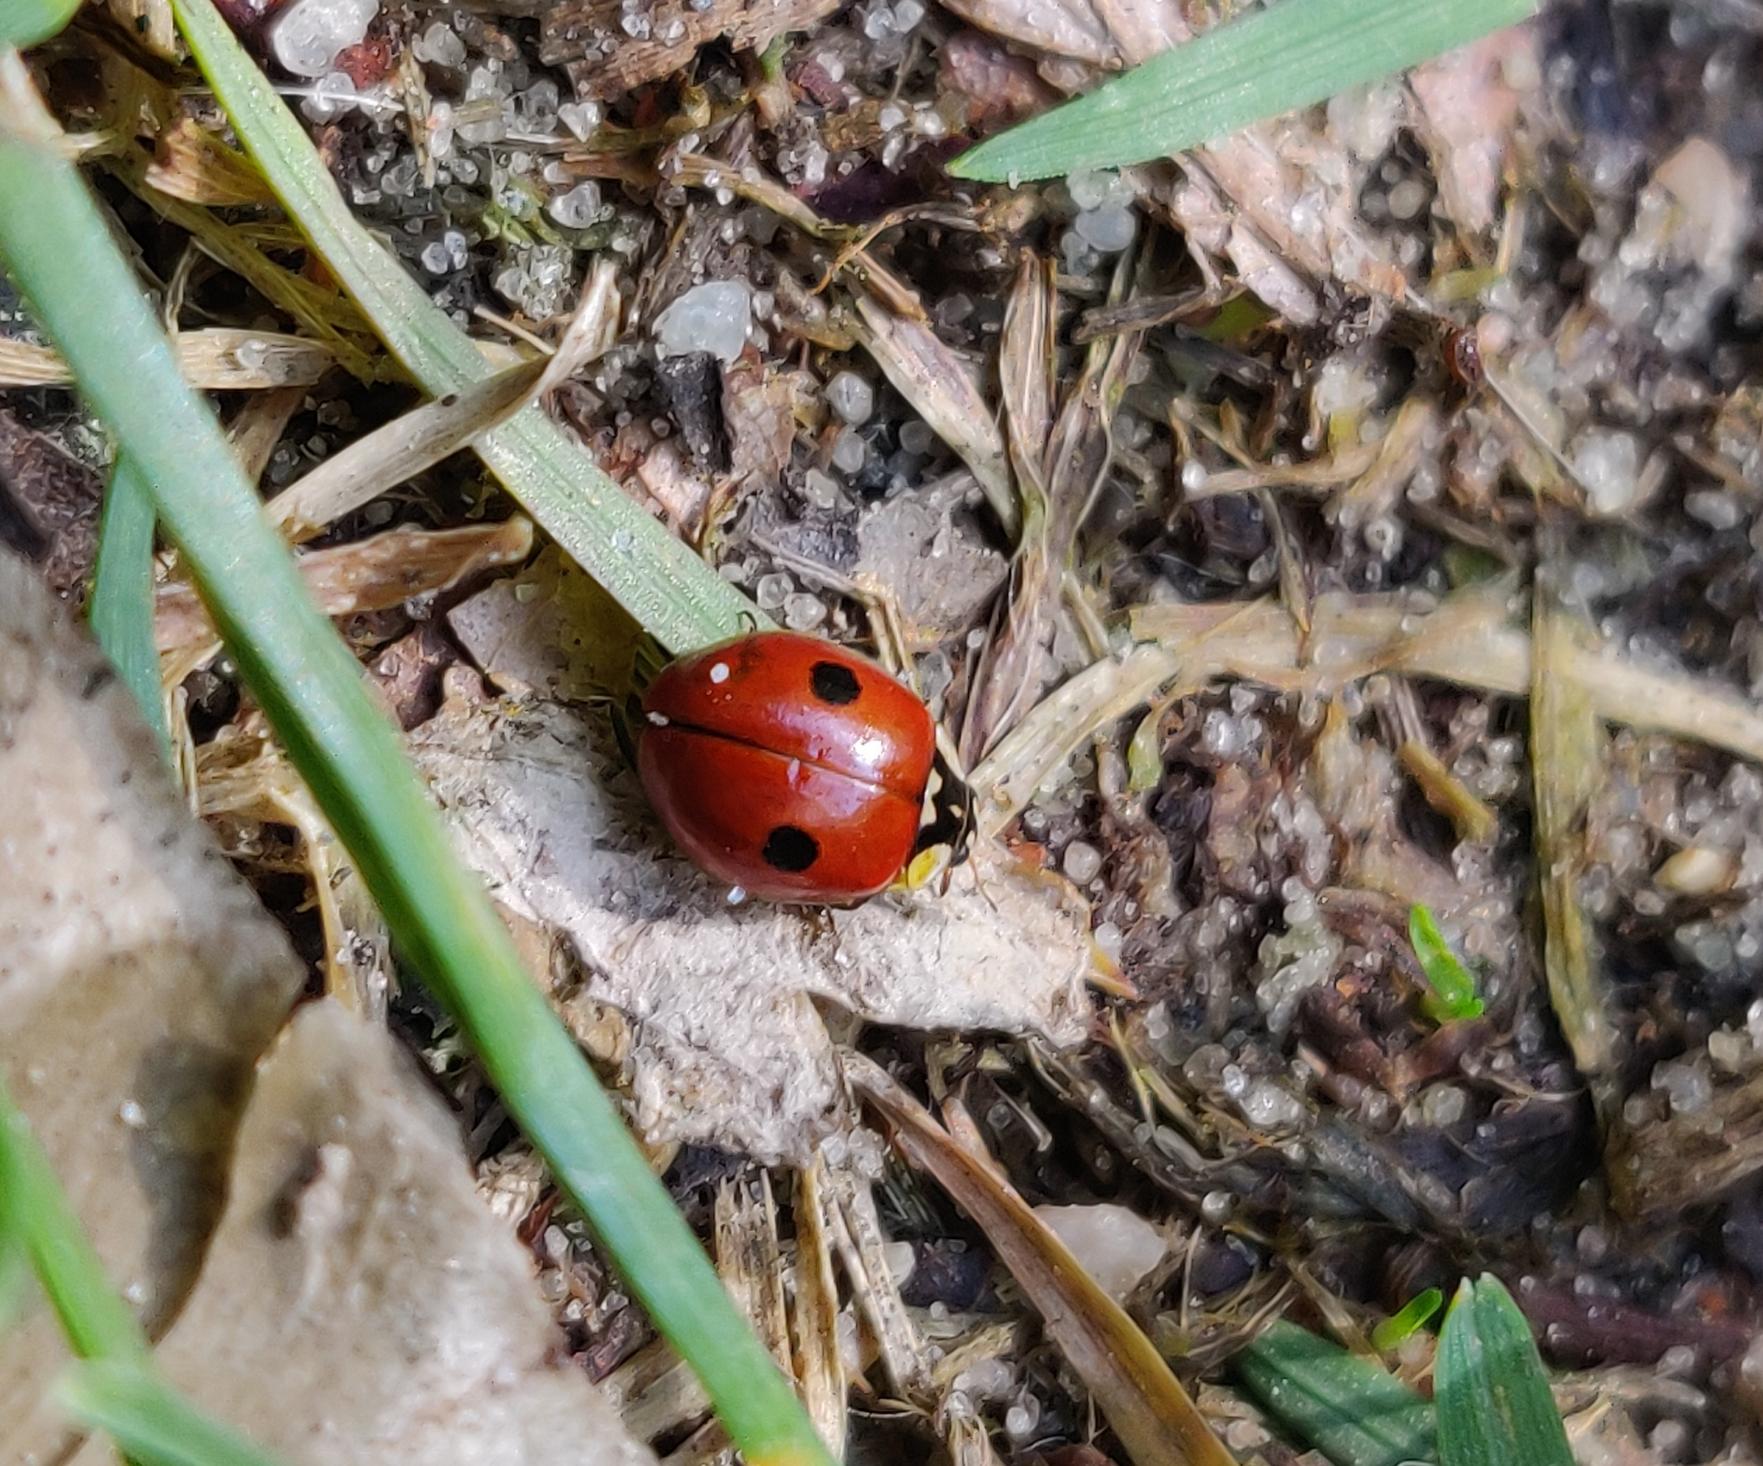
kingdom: Animalia
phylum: Arthropoda
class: Insecta
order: Coleoptera
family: Coccinellidae
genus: Adalia
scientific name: Adalia bipunctata
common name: Toplettet mariehøne
